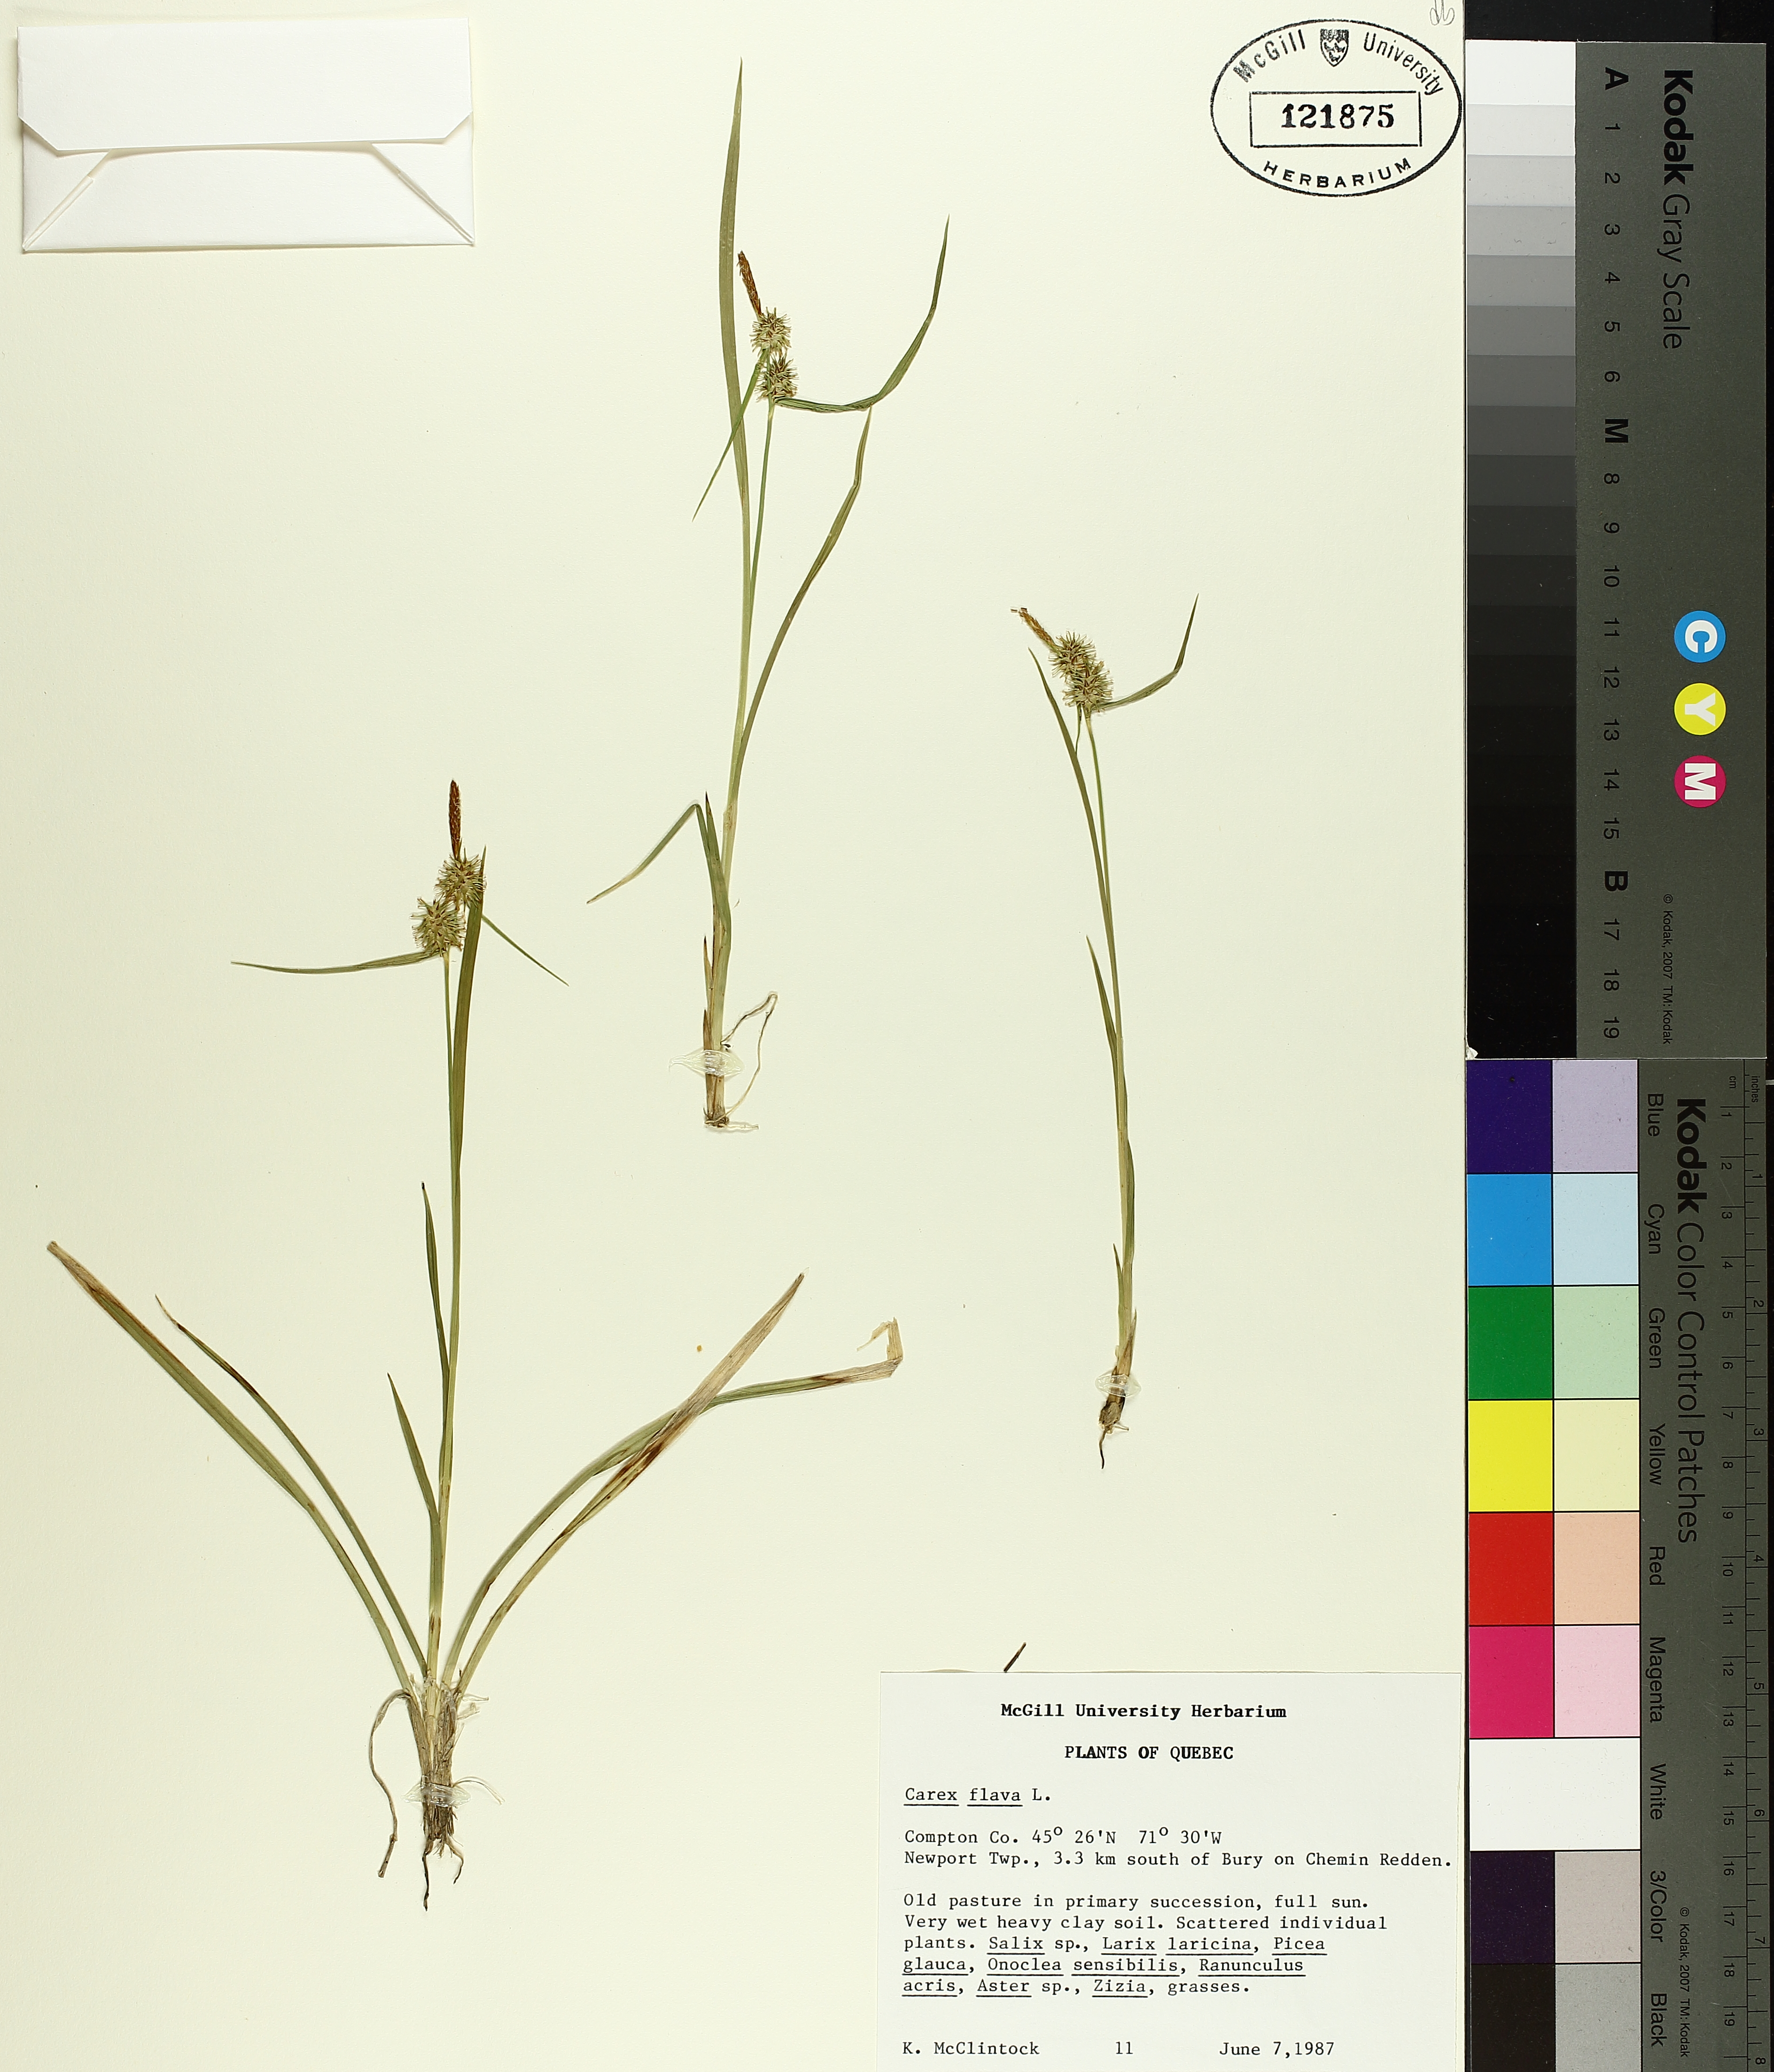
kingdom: Plantae
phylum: Tracheophyta
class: Liliopsida
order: Poales
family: Cyperaceae
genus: Carex
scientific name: Carex flava
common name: Large yellow-sedge
